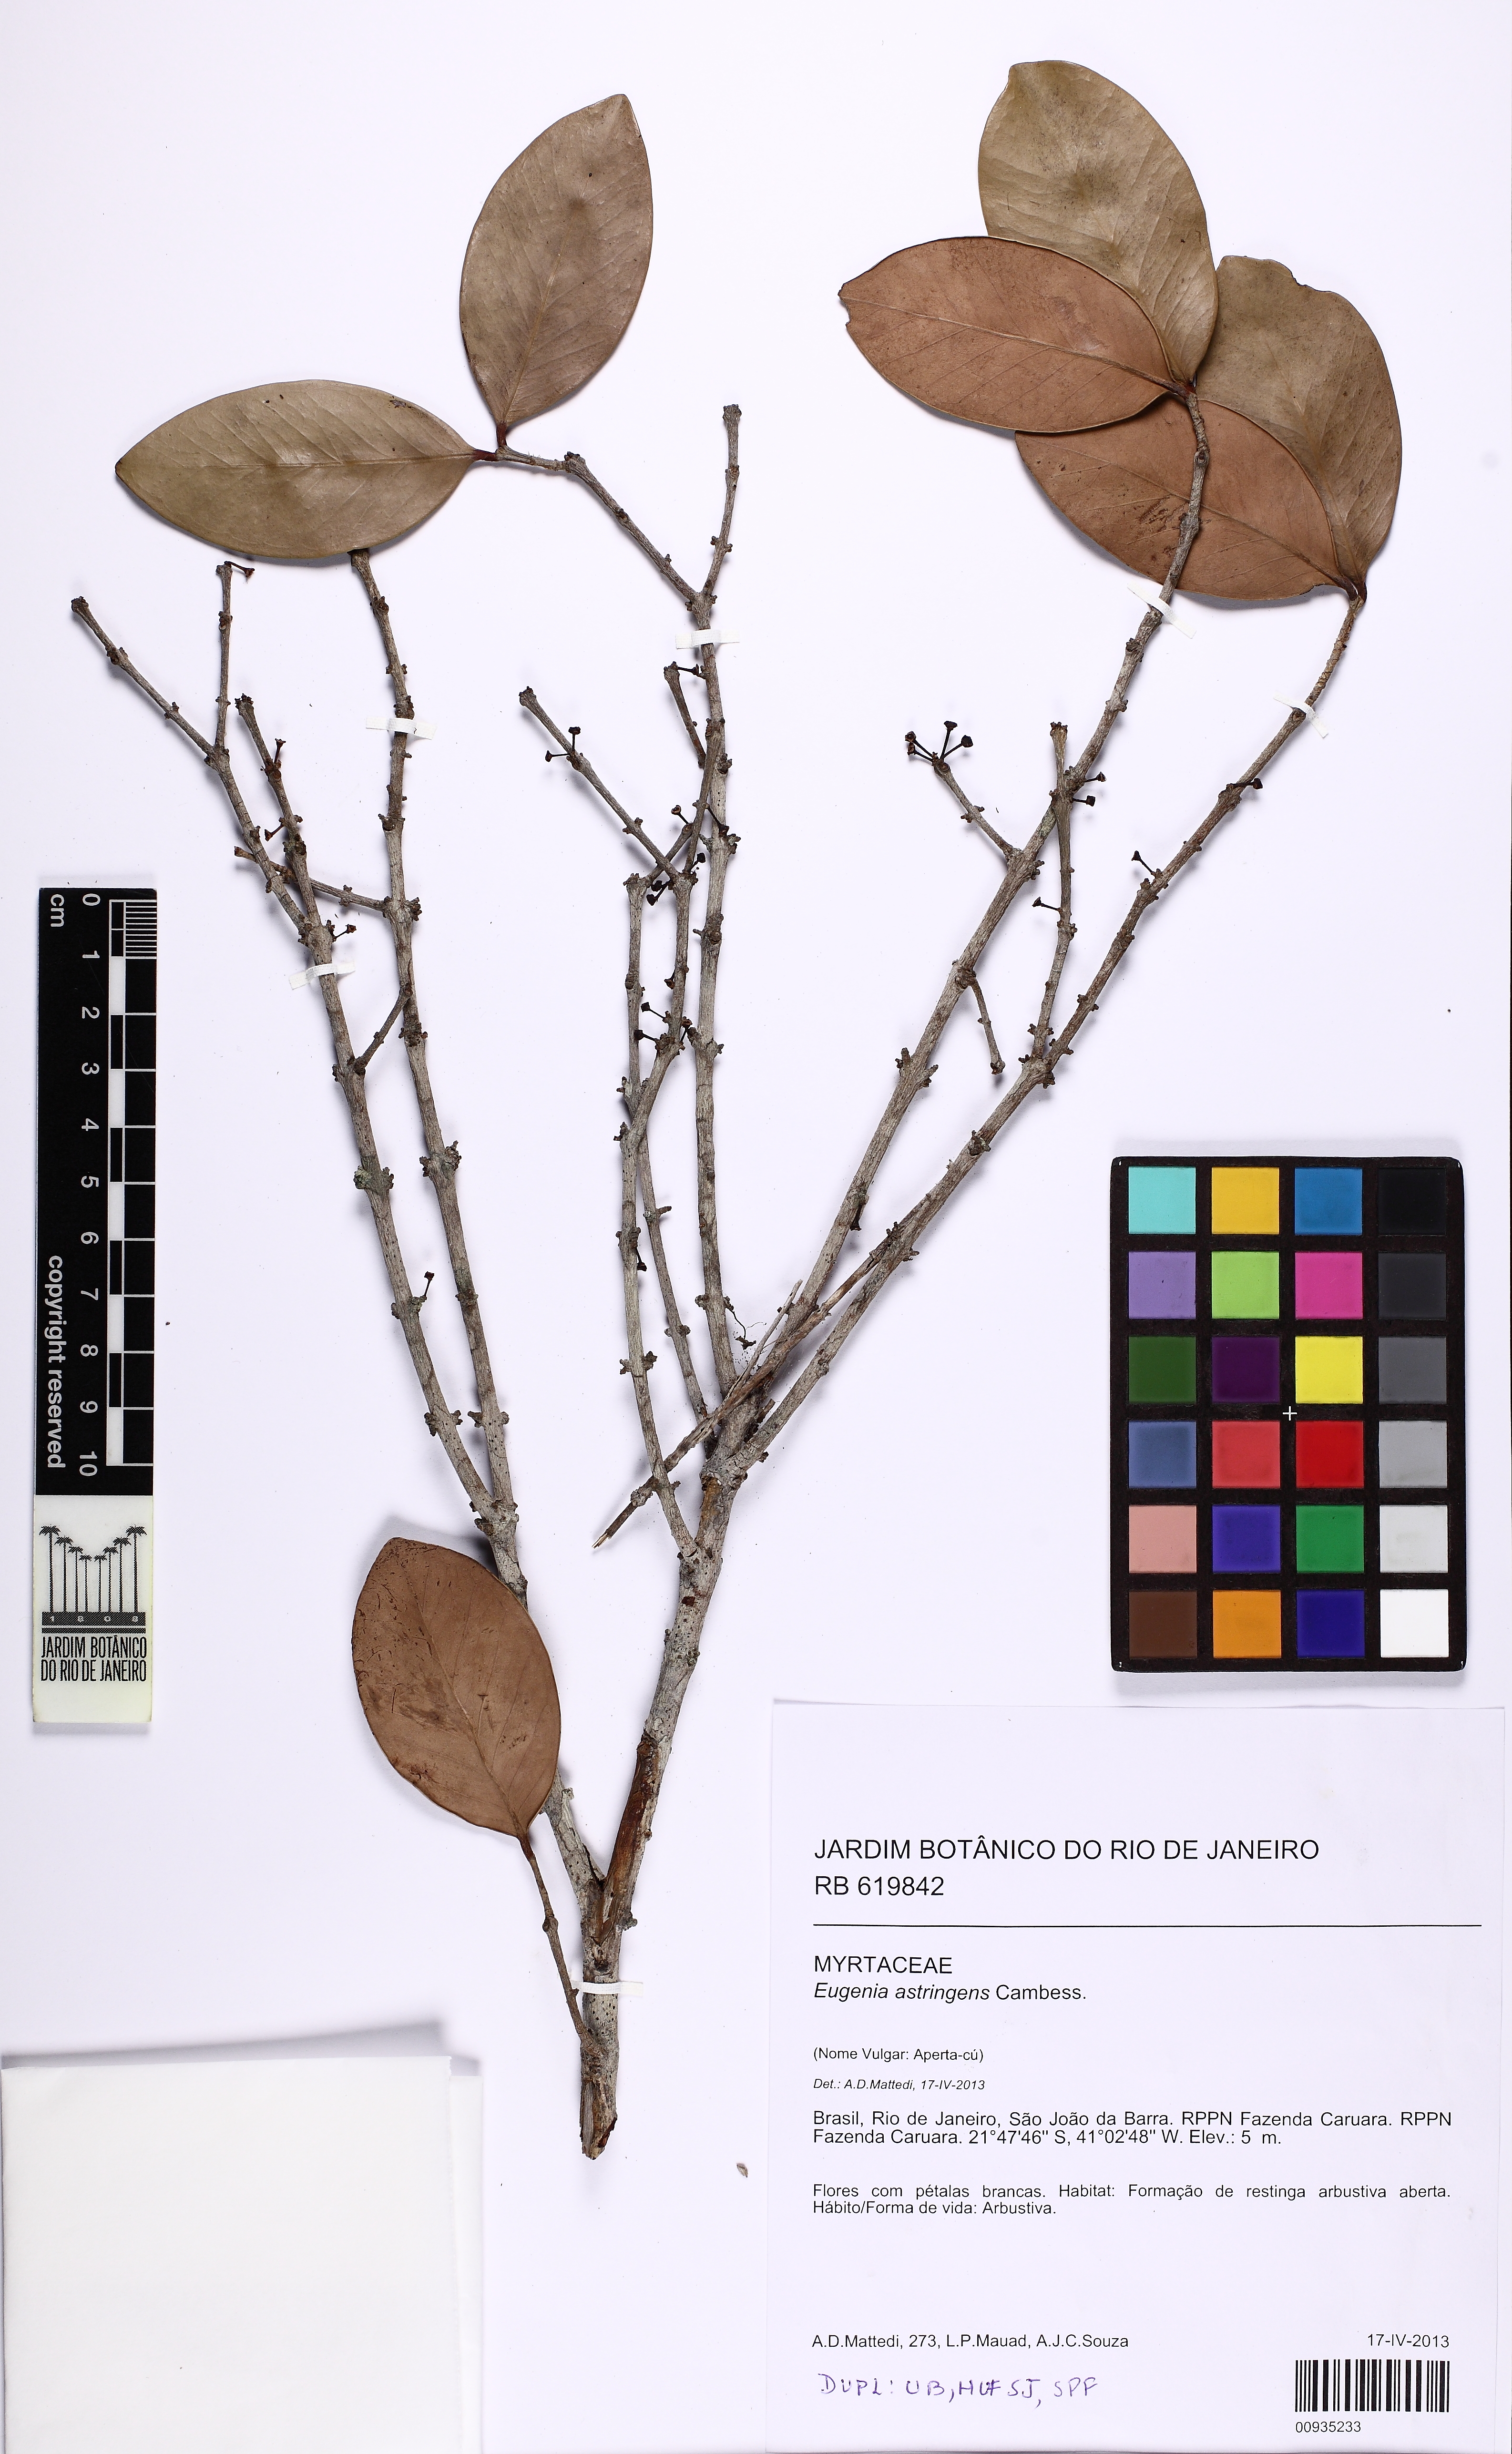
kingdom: Plantae
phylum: Tracheophyta
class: Magnoliopsida
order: Myrtales
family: Myrtaceae
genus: Eugenia
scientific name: Eugenia astringens
